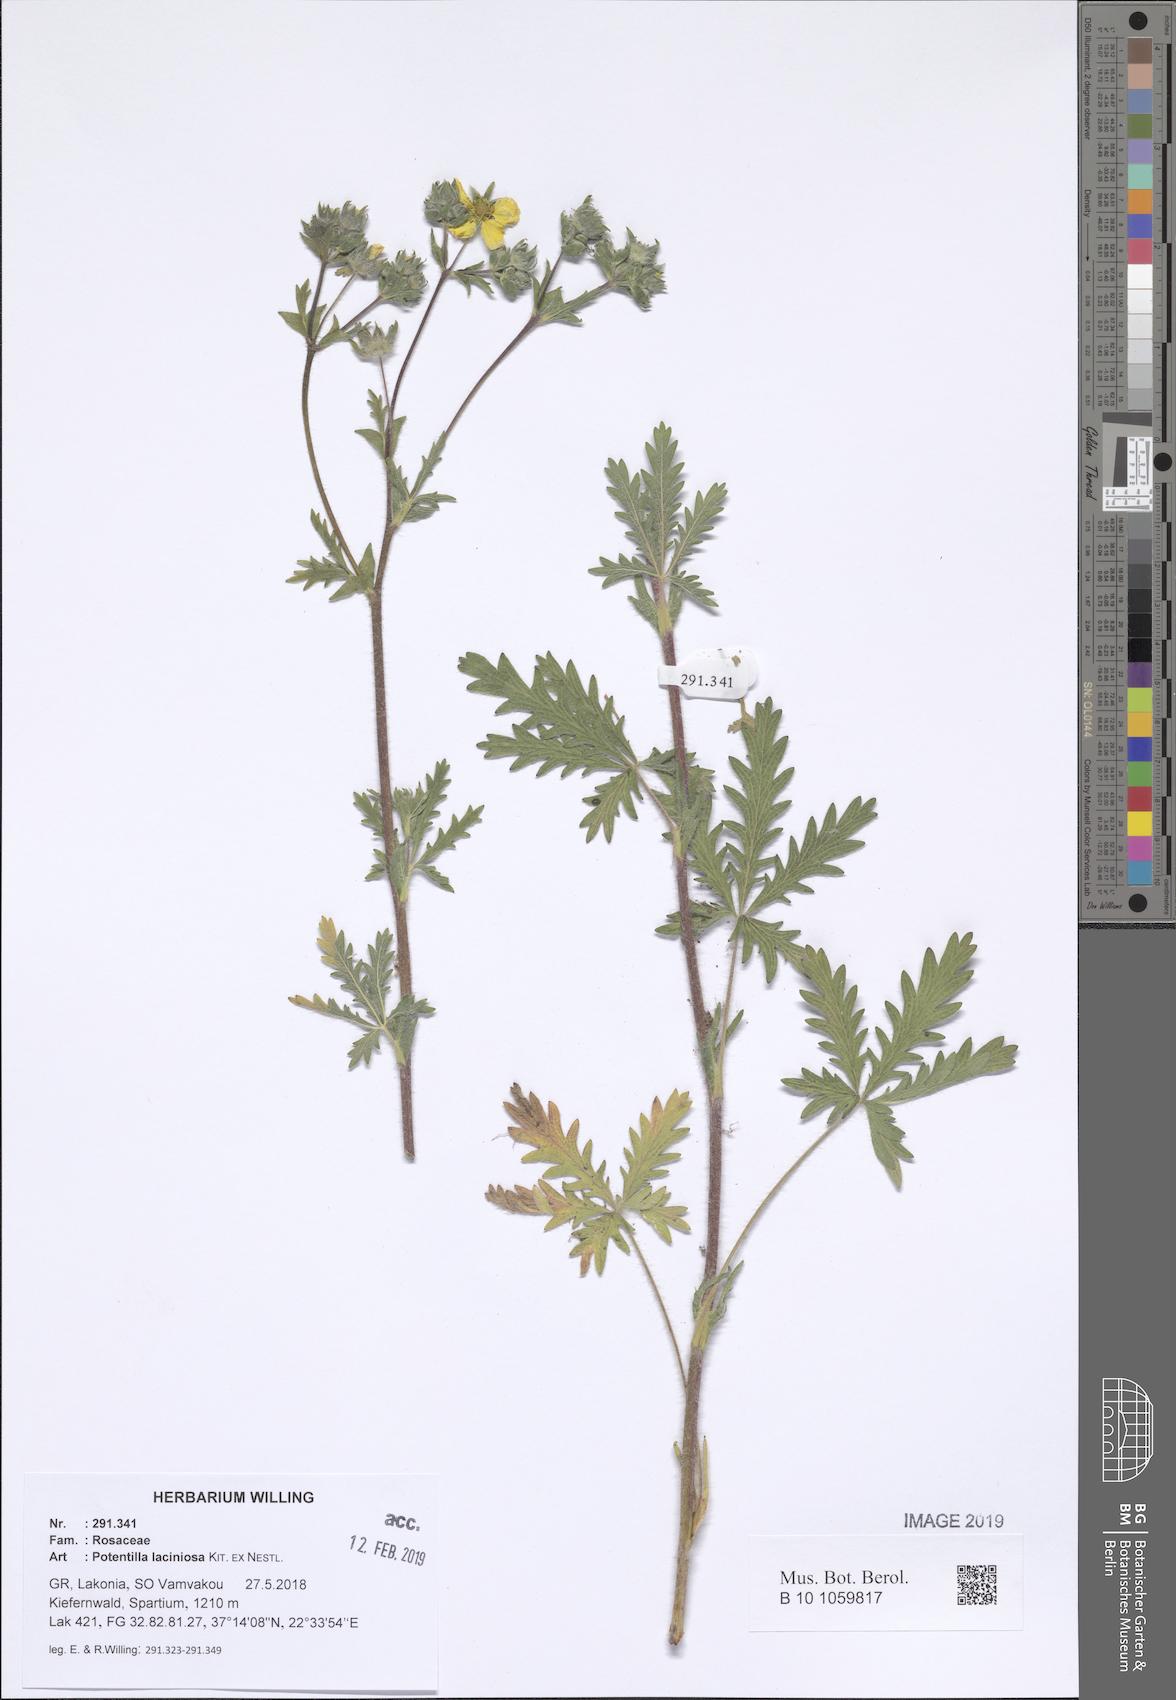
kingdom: Plantae
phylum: Tracheophyta
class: Magnoliopsida
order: Rosales
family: Rosaceae
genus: Potentilla
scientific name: Potentilla recta
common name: Sulphur cinquefoil
